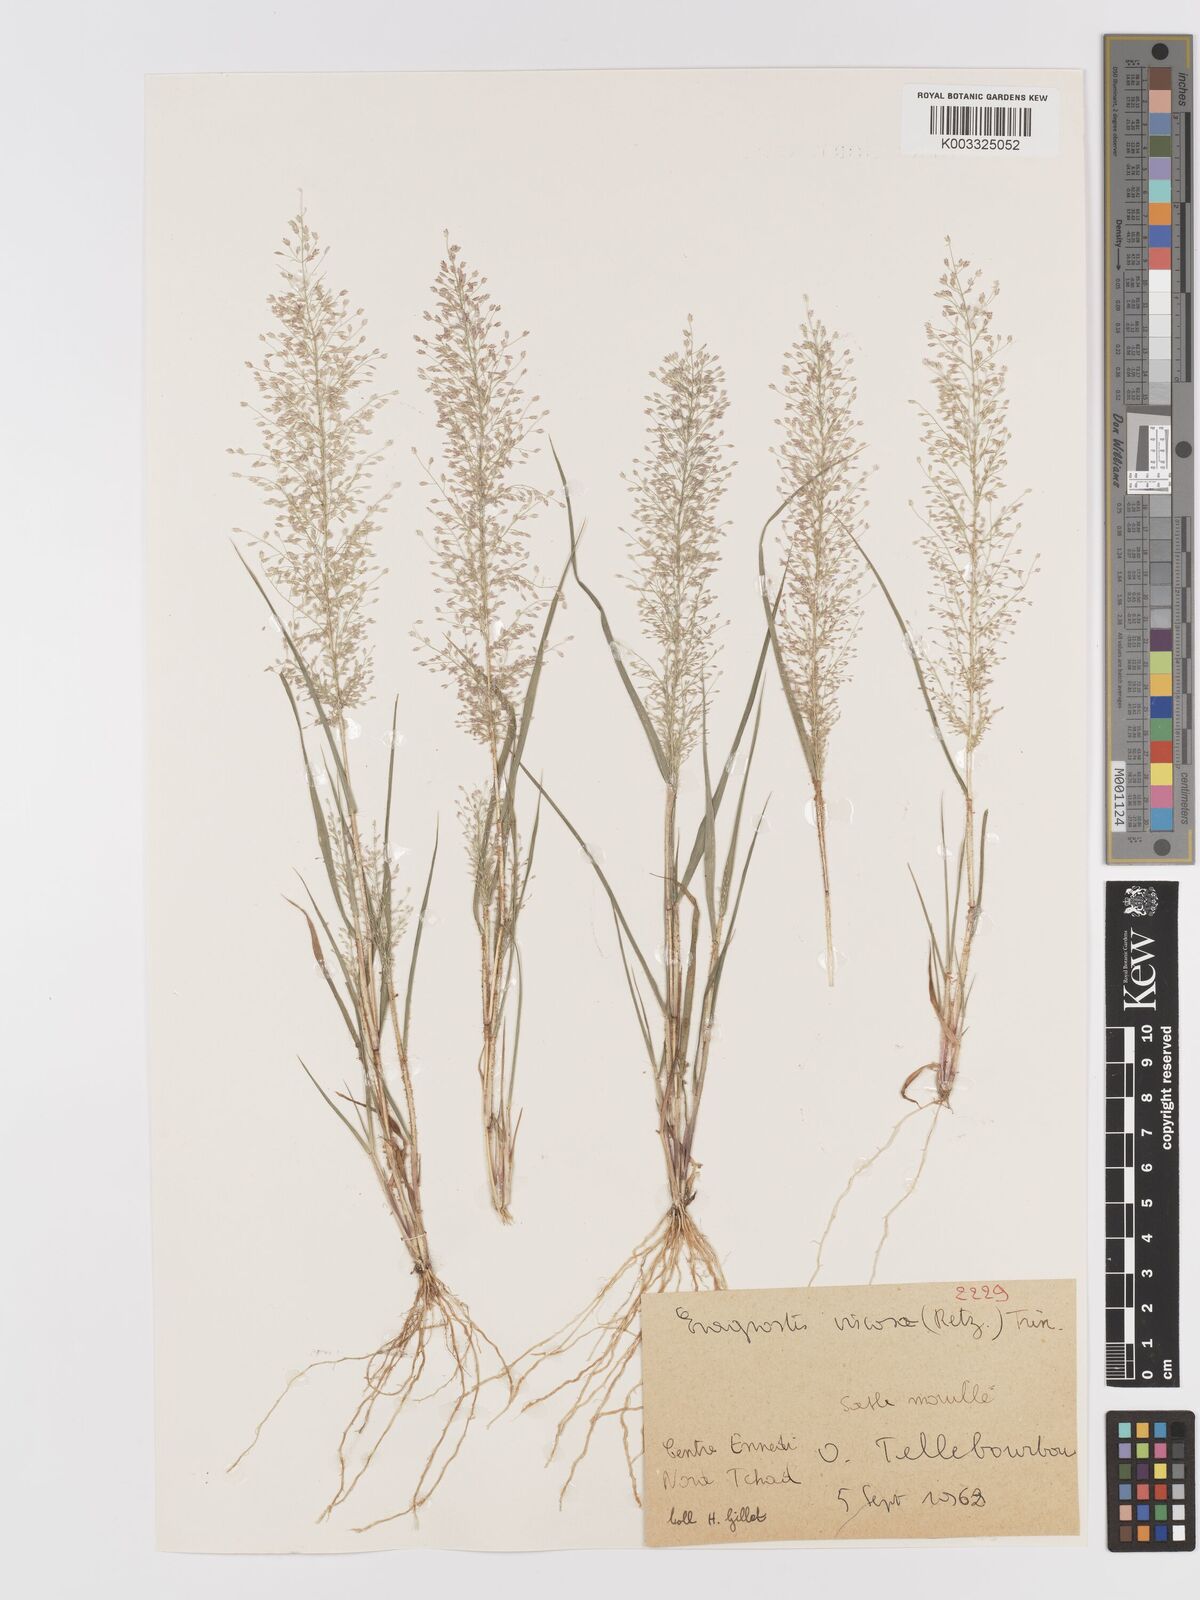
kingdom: Plantae
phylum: Tracheophyta
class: Liliopsida
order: Poales
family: Poaceae
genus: Eragrostis
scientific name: Eragrostis curtipedicellata
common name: Gummy love grass
